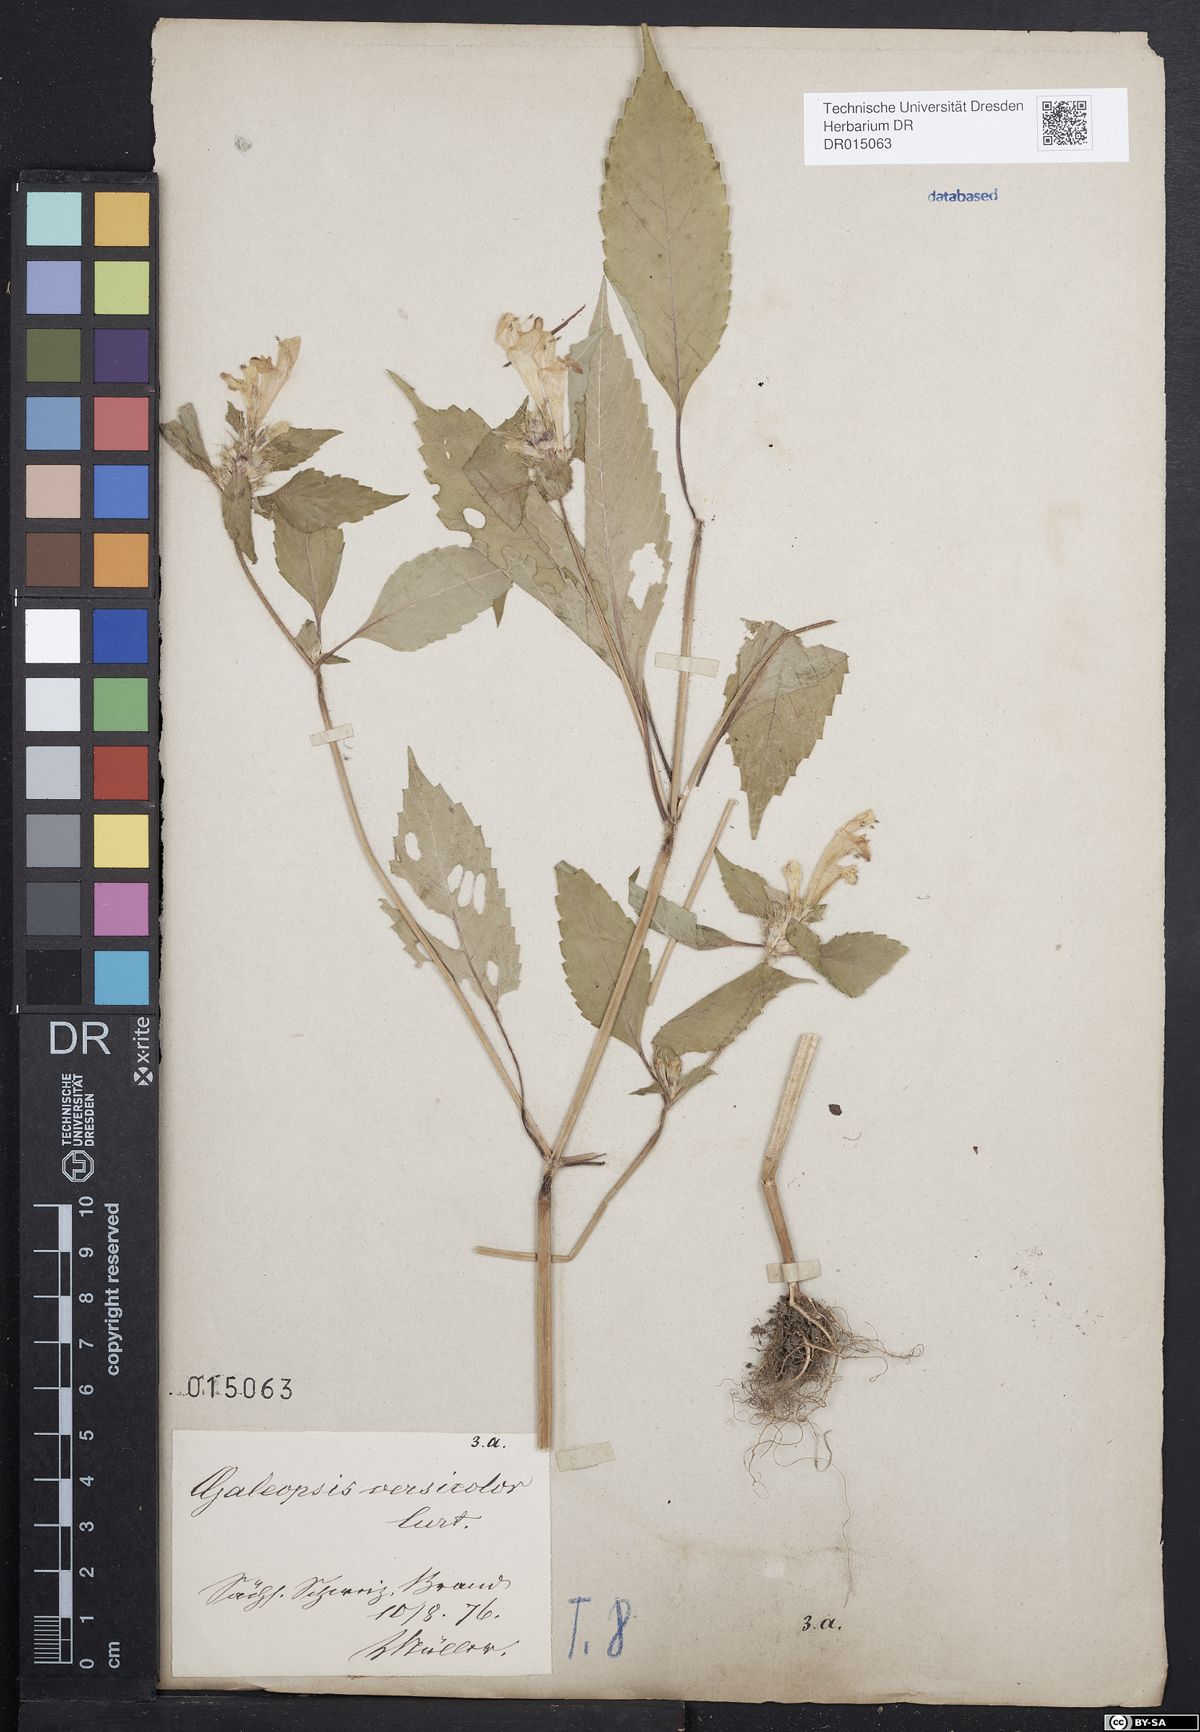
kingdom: Plantae
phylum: Tracheophyta
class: Magnoliopsida
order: Lamiales
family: Lamiaceae
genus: Galeopsis
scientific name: Galeopsis speciosa
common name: Large-flowered hemp-nettle
